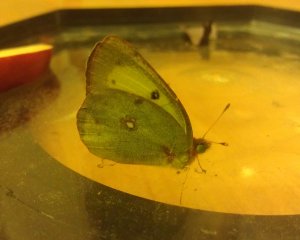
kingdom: Animalia
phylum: Arthropoda
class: Insecta
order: Lepidoptera
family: Pieridae
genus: Colias
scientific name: Colias eurytheme
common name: Orange Sulphur
